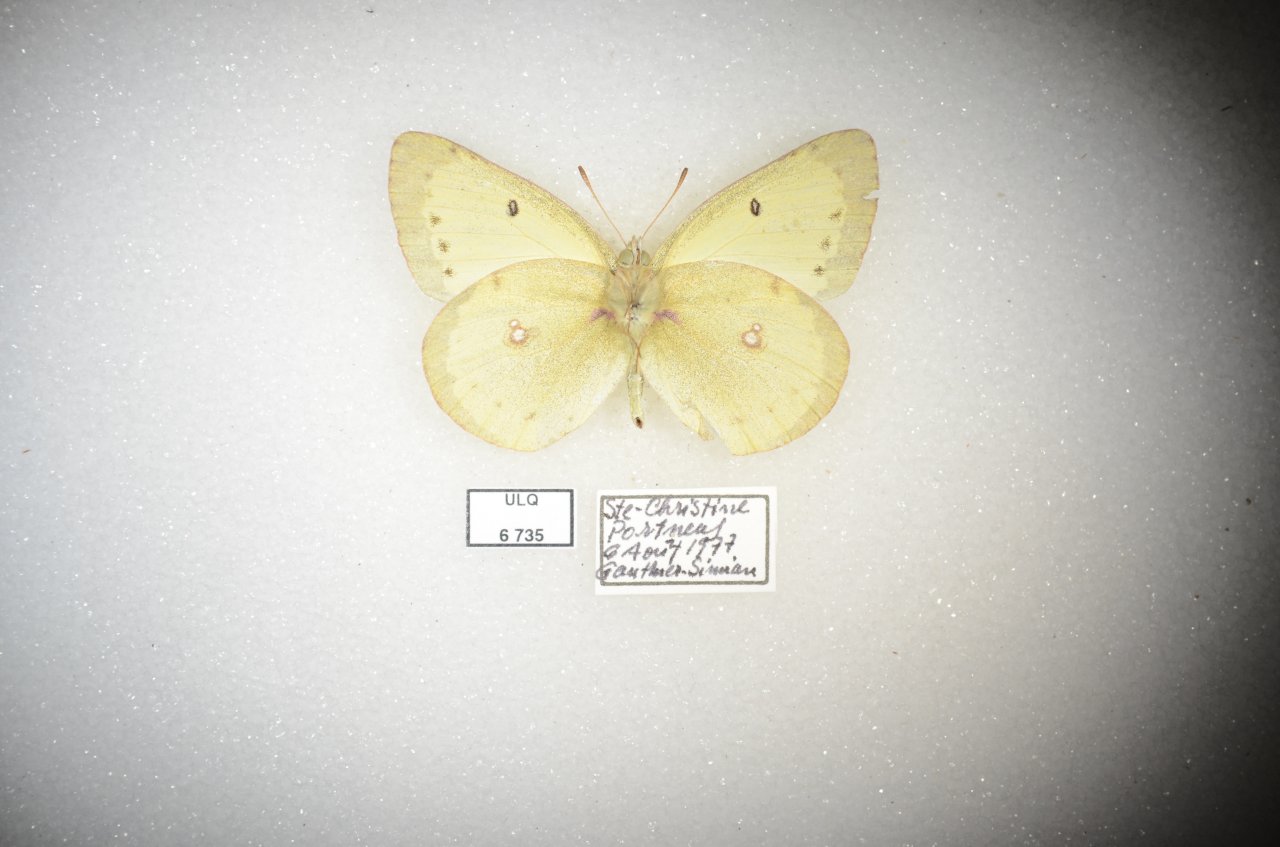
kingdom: Animalia
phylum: Arthropoda
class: Insecta
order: Lepidoptera
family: Pieridae
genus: Colias
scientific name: Colias philodice
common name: Clouded Sulphur
